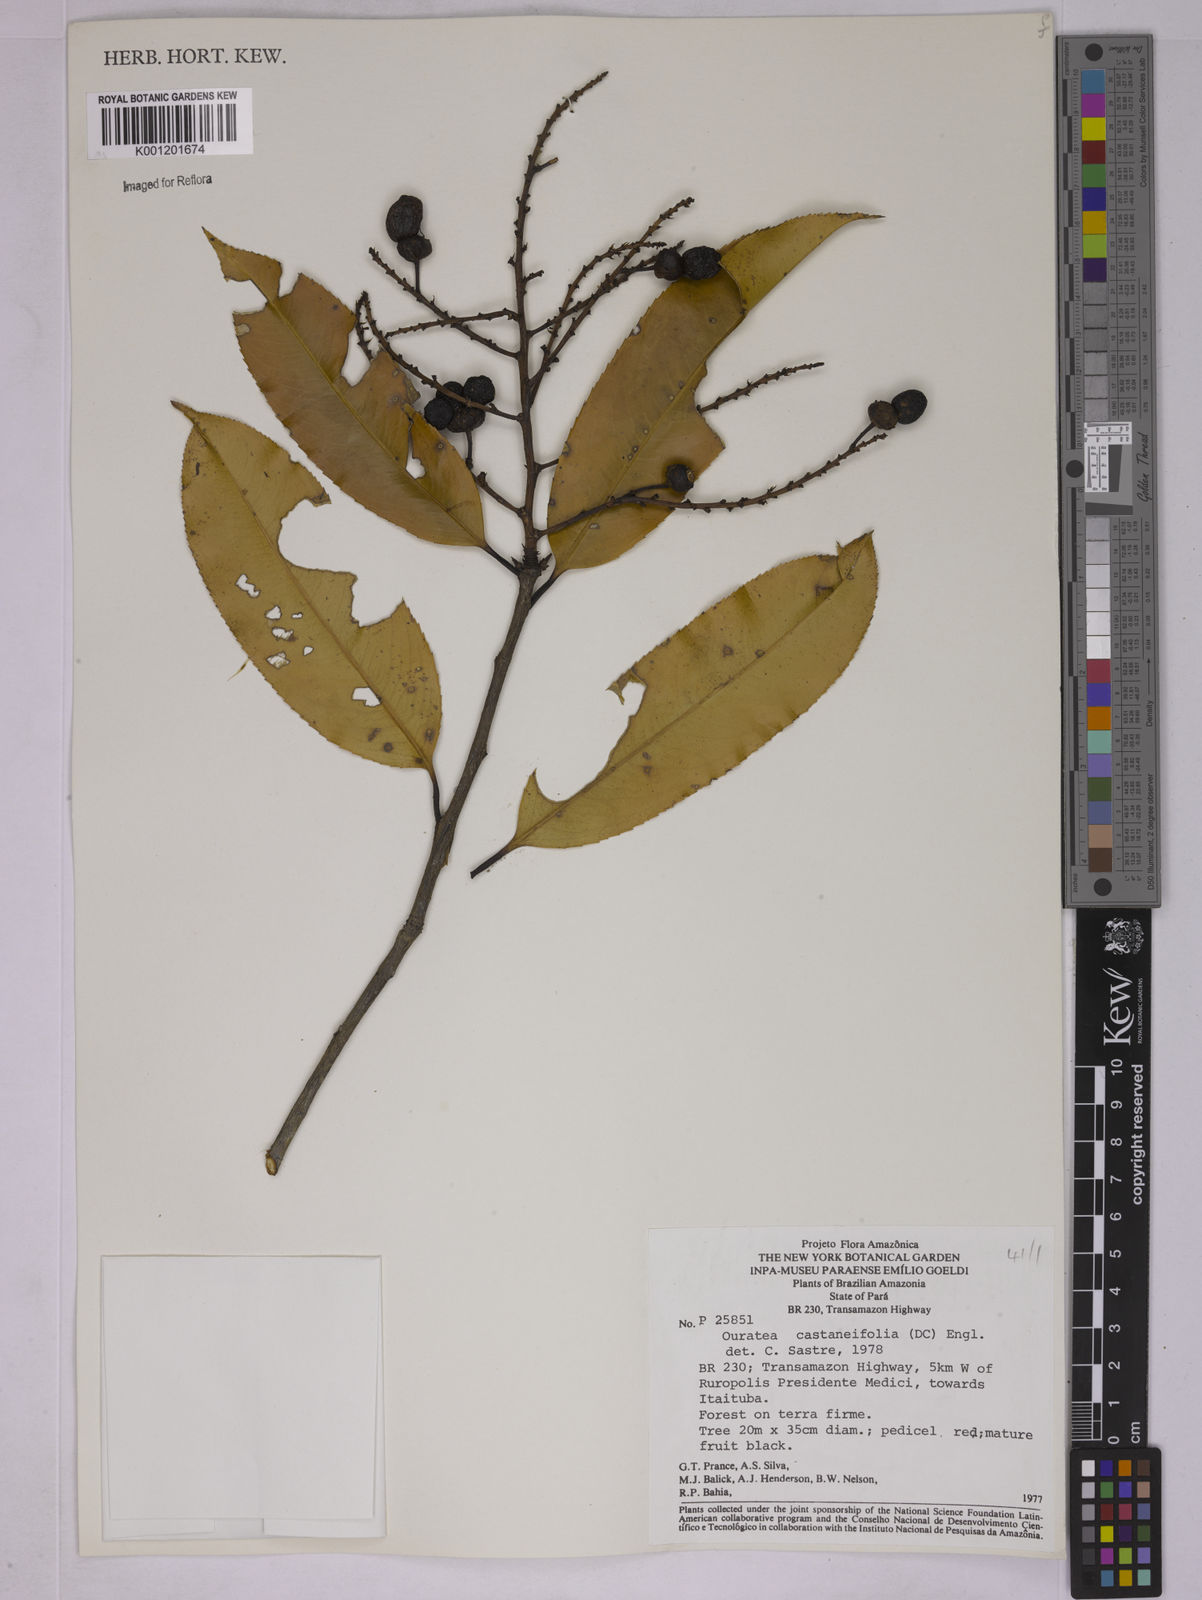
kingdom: Plantae
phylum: Tracheophyta
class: Magnoliopsida
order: Malpighiales
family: Ochnaceae
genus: Ouratea
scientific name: Ouratea castaneifolia
